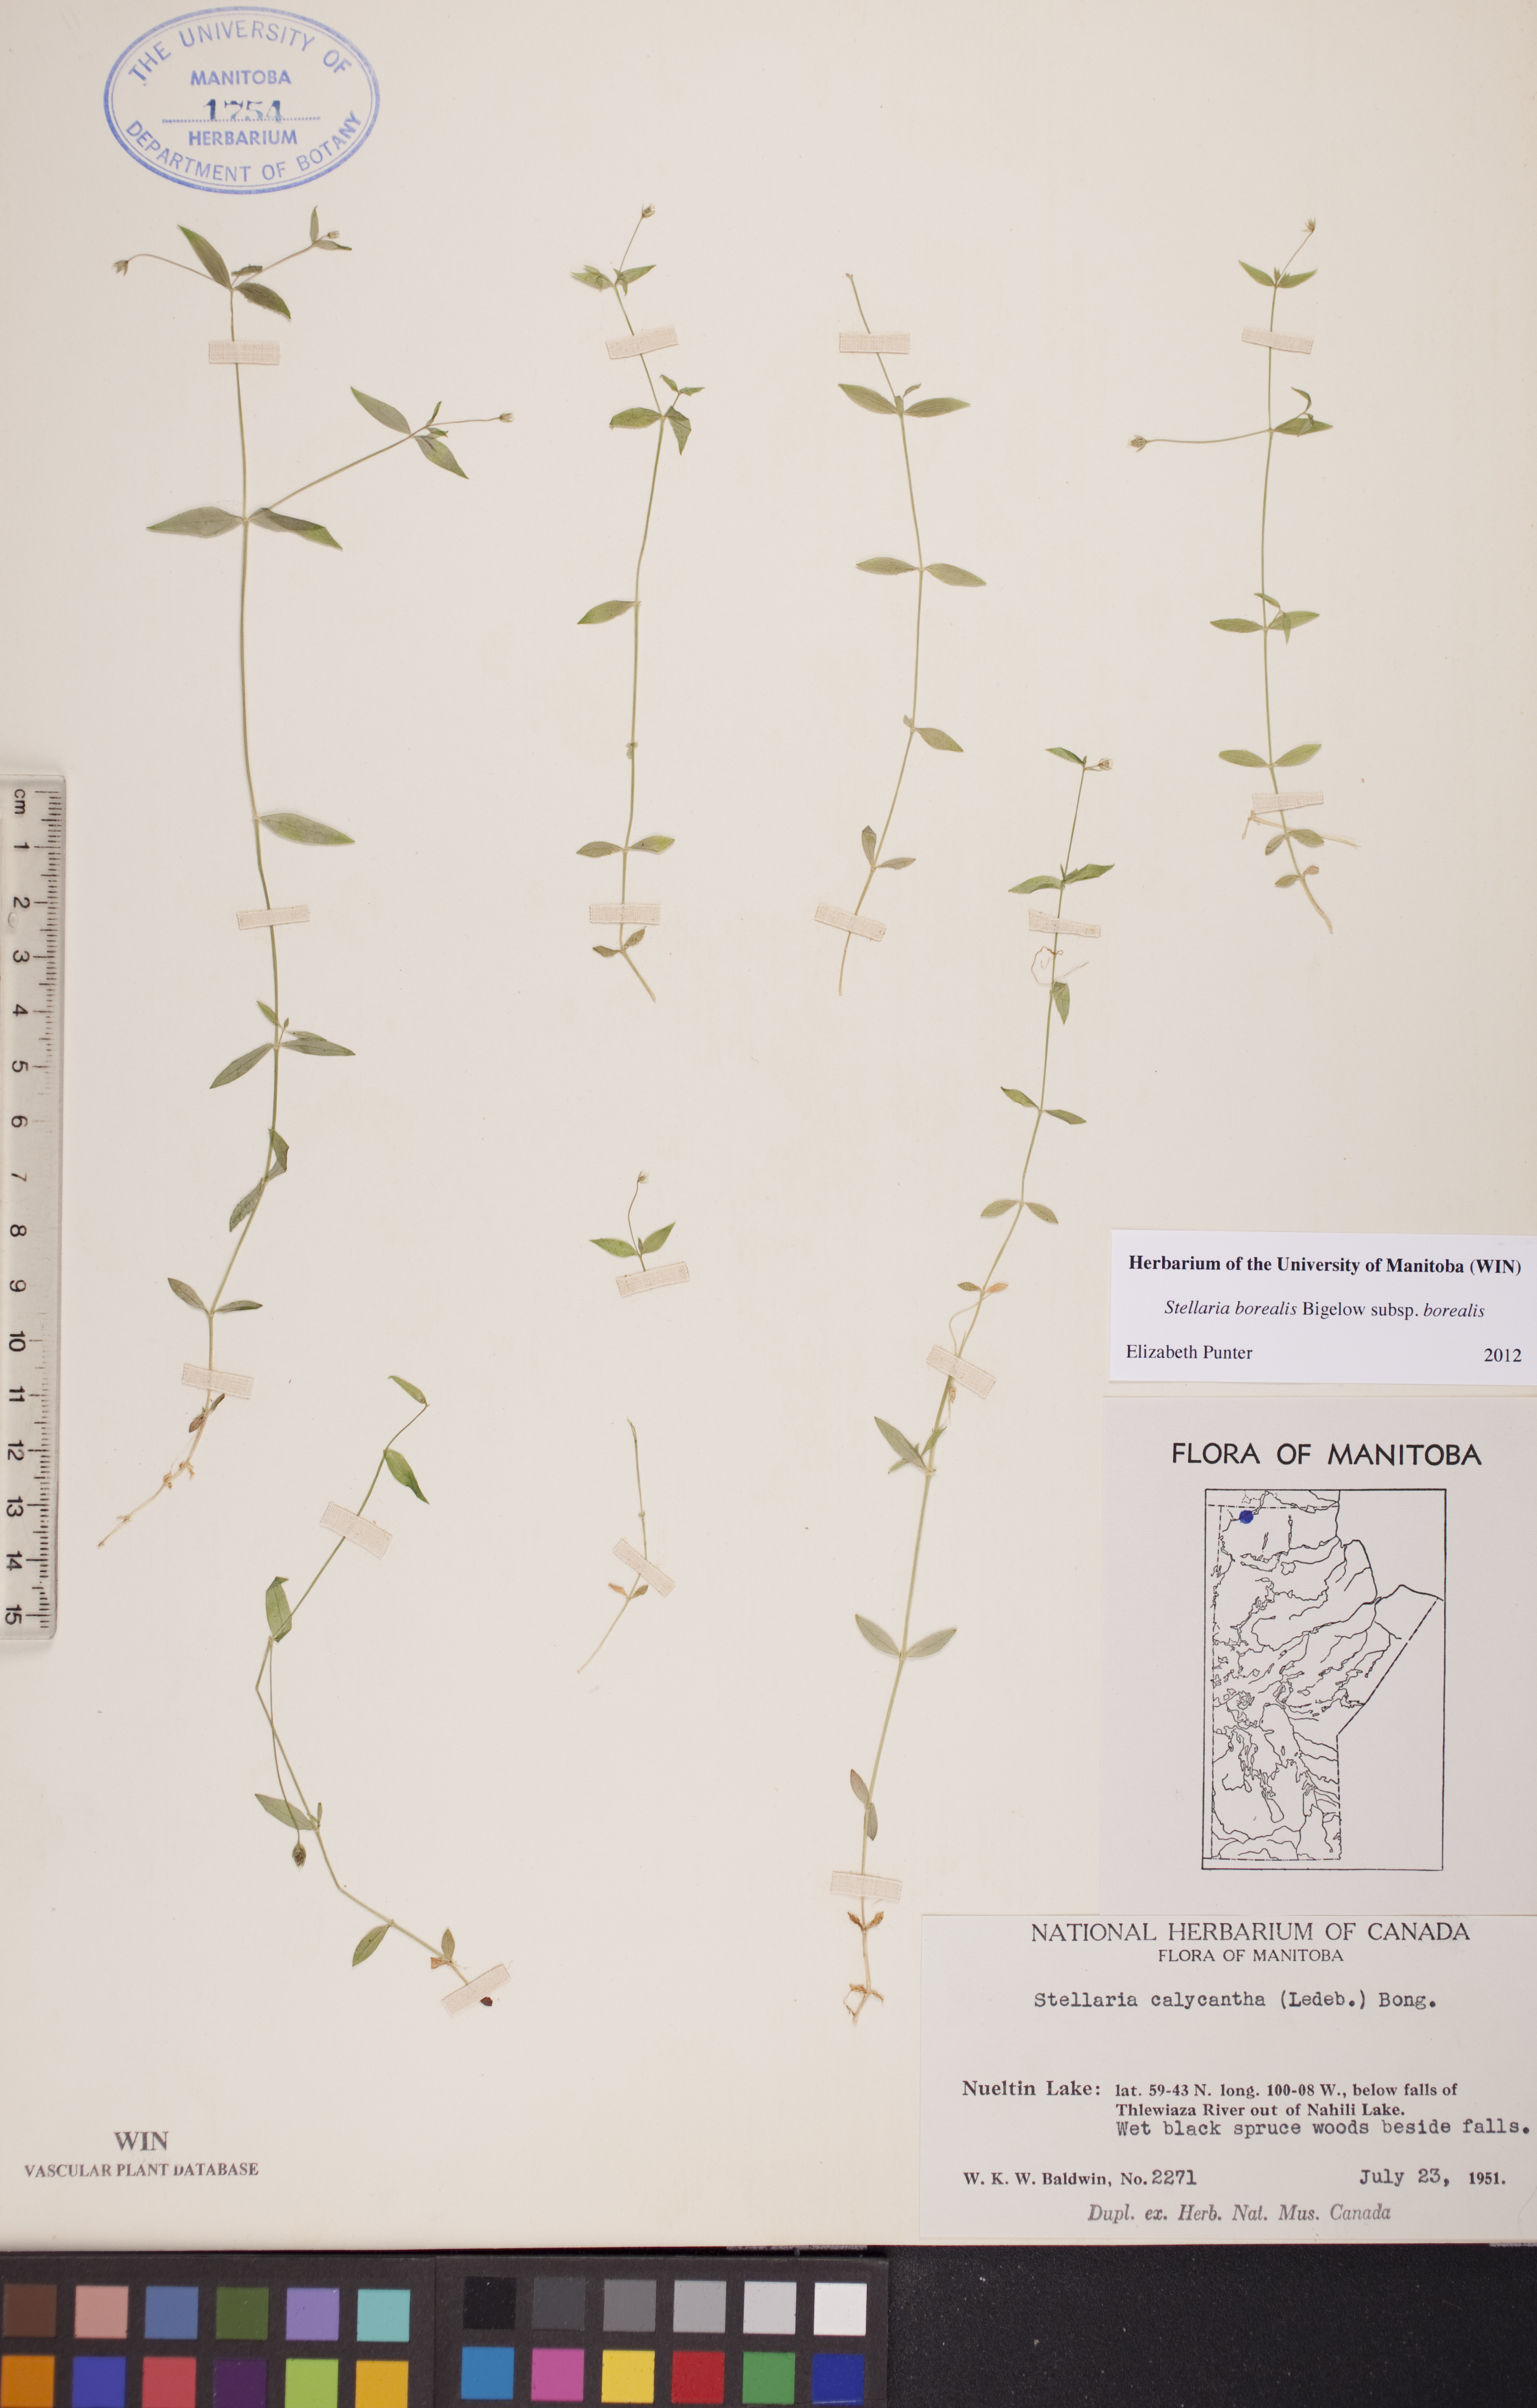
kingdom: Plantae
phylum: Tracheophyta
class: Magnoliopsida
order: Caryophyllales
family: Caryophyllaceae
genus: Stellaria
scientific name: Stellaria borealis
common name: Boreal starwort
